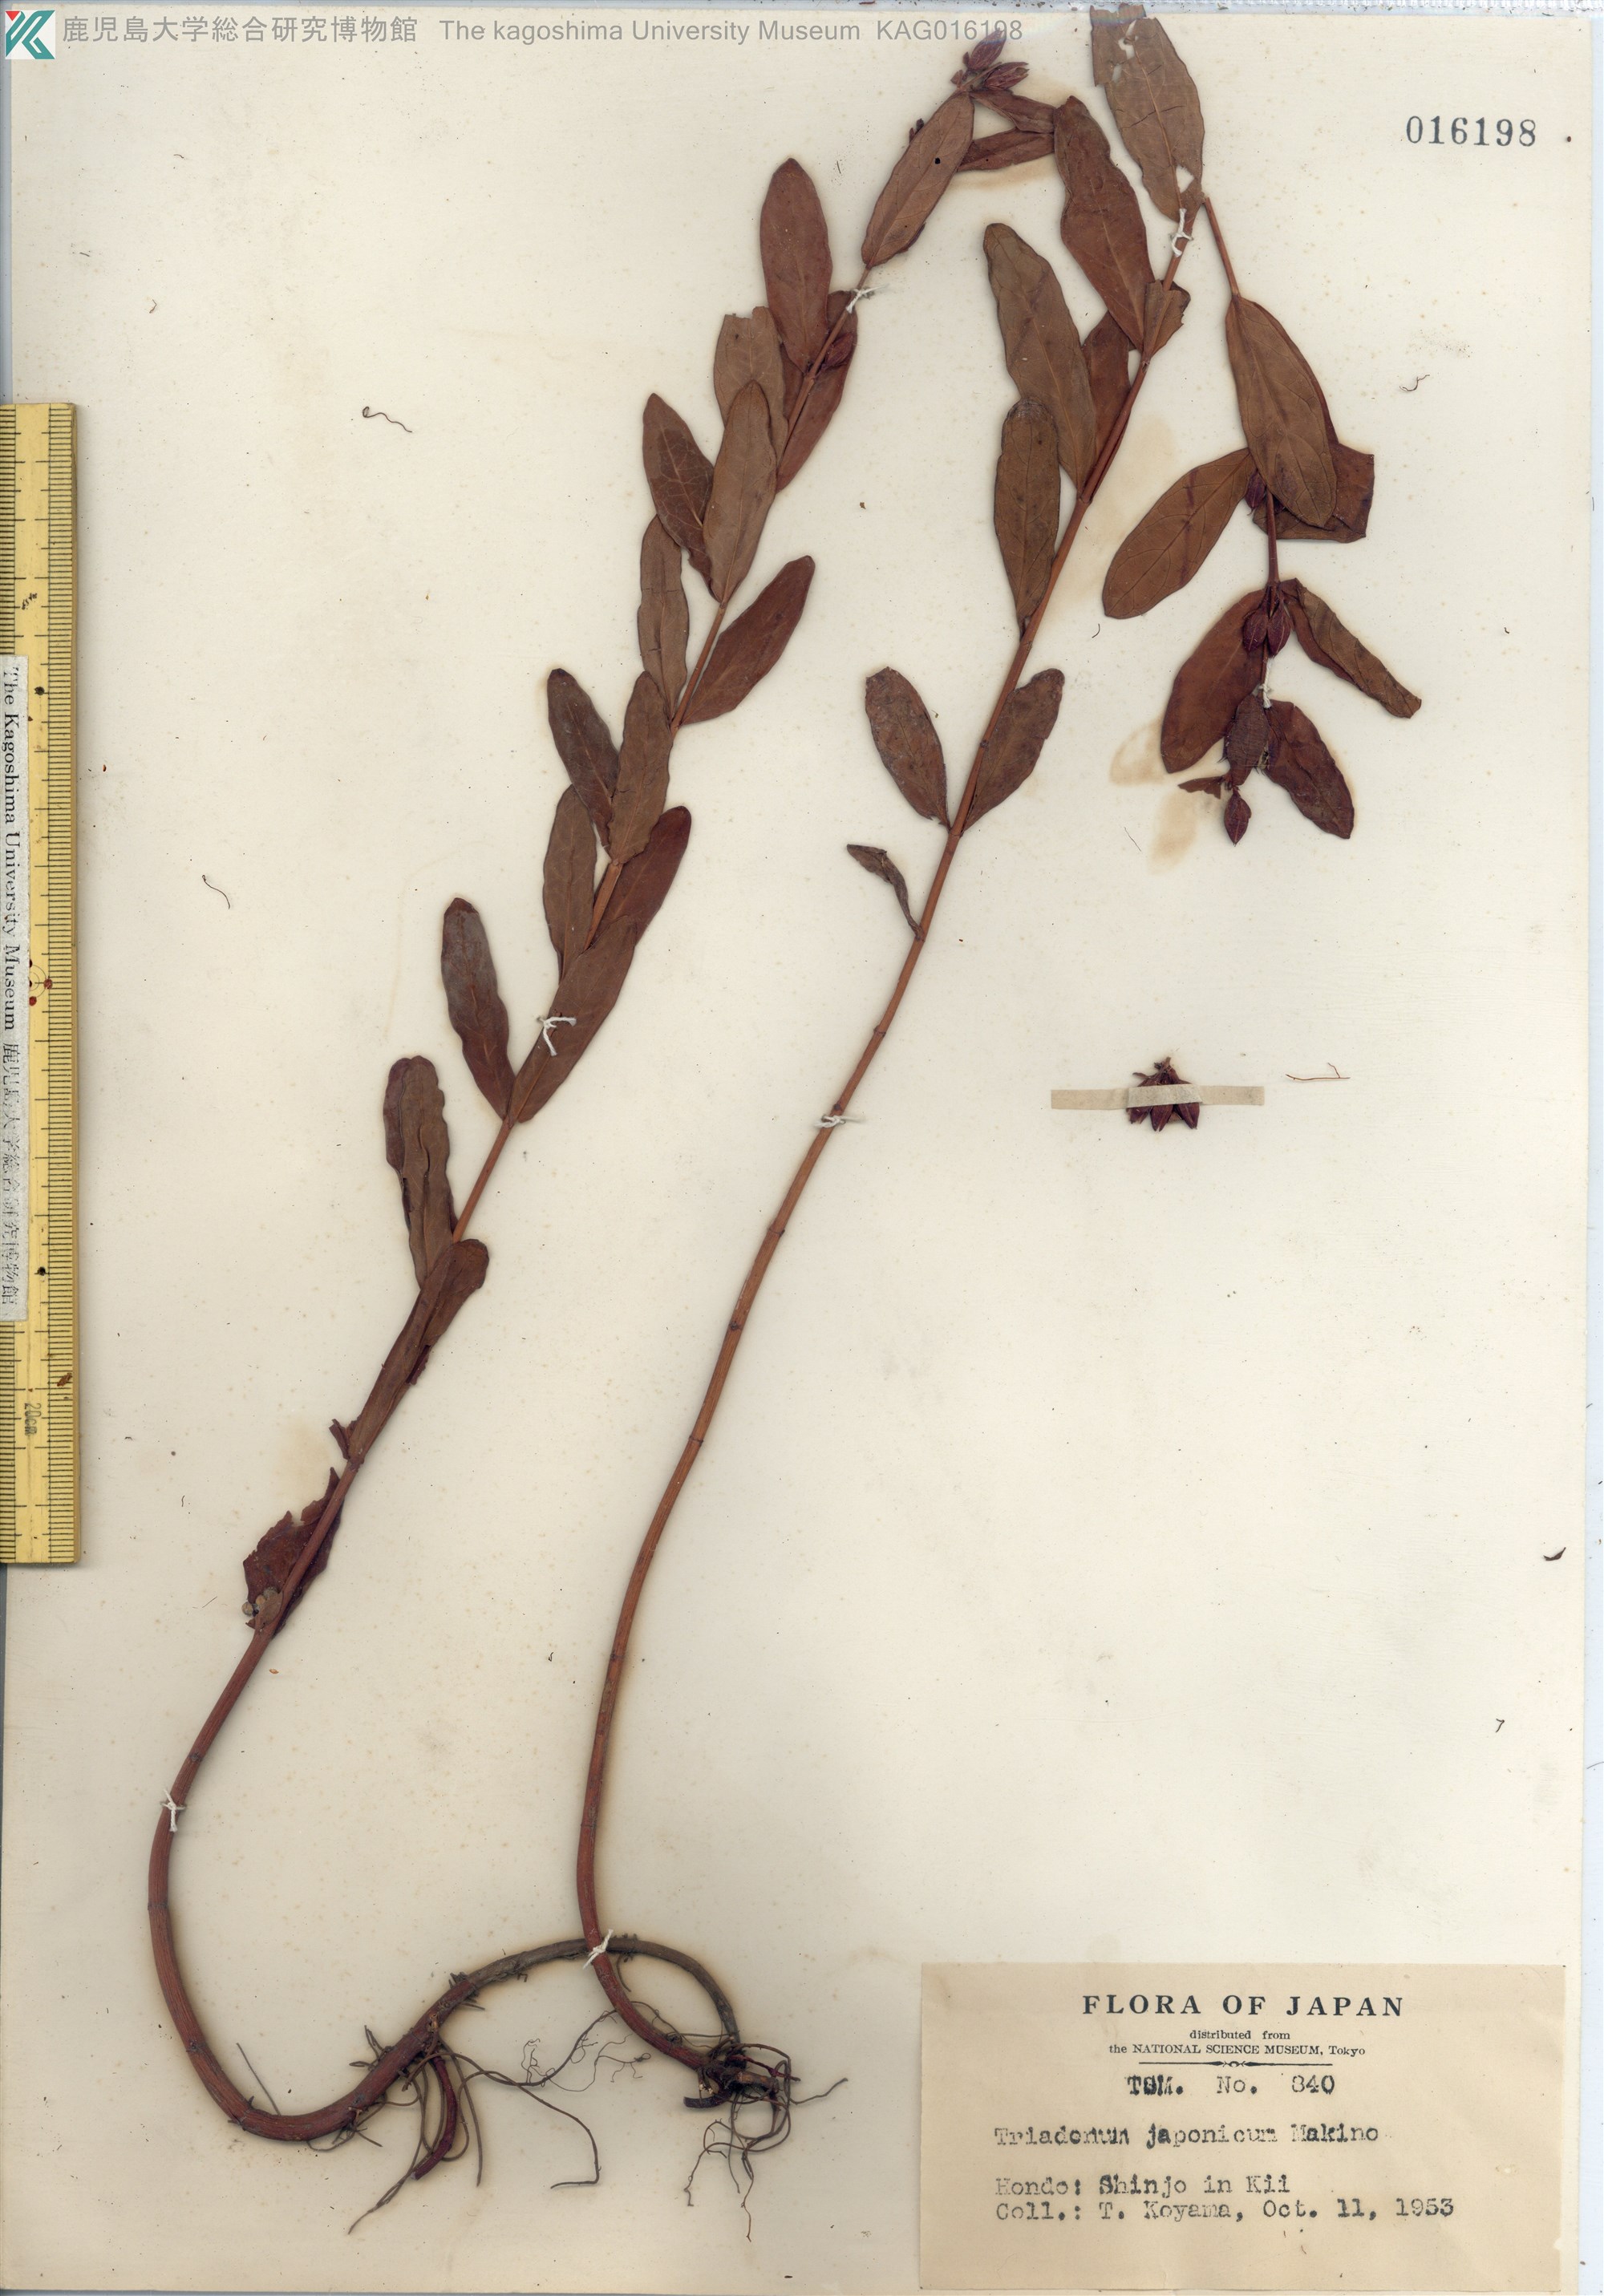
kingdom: Plantae
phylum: Tracheophyta
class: Magnoliopsida
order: Malpighiales
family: Hypericaceae
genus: Triadenum
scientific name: Triadenum japonicum
